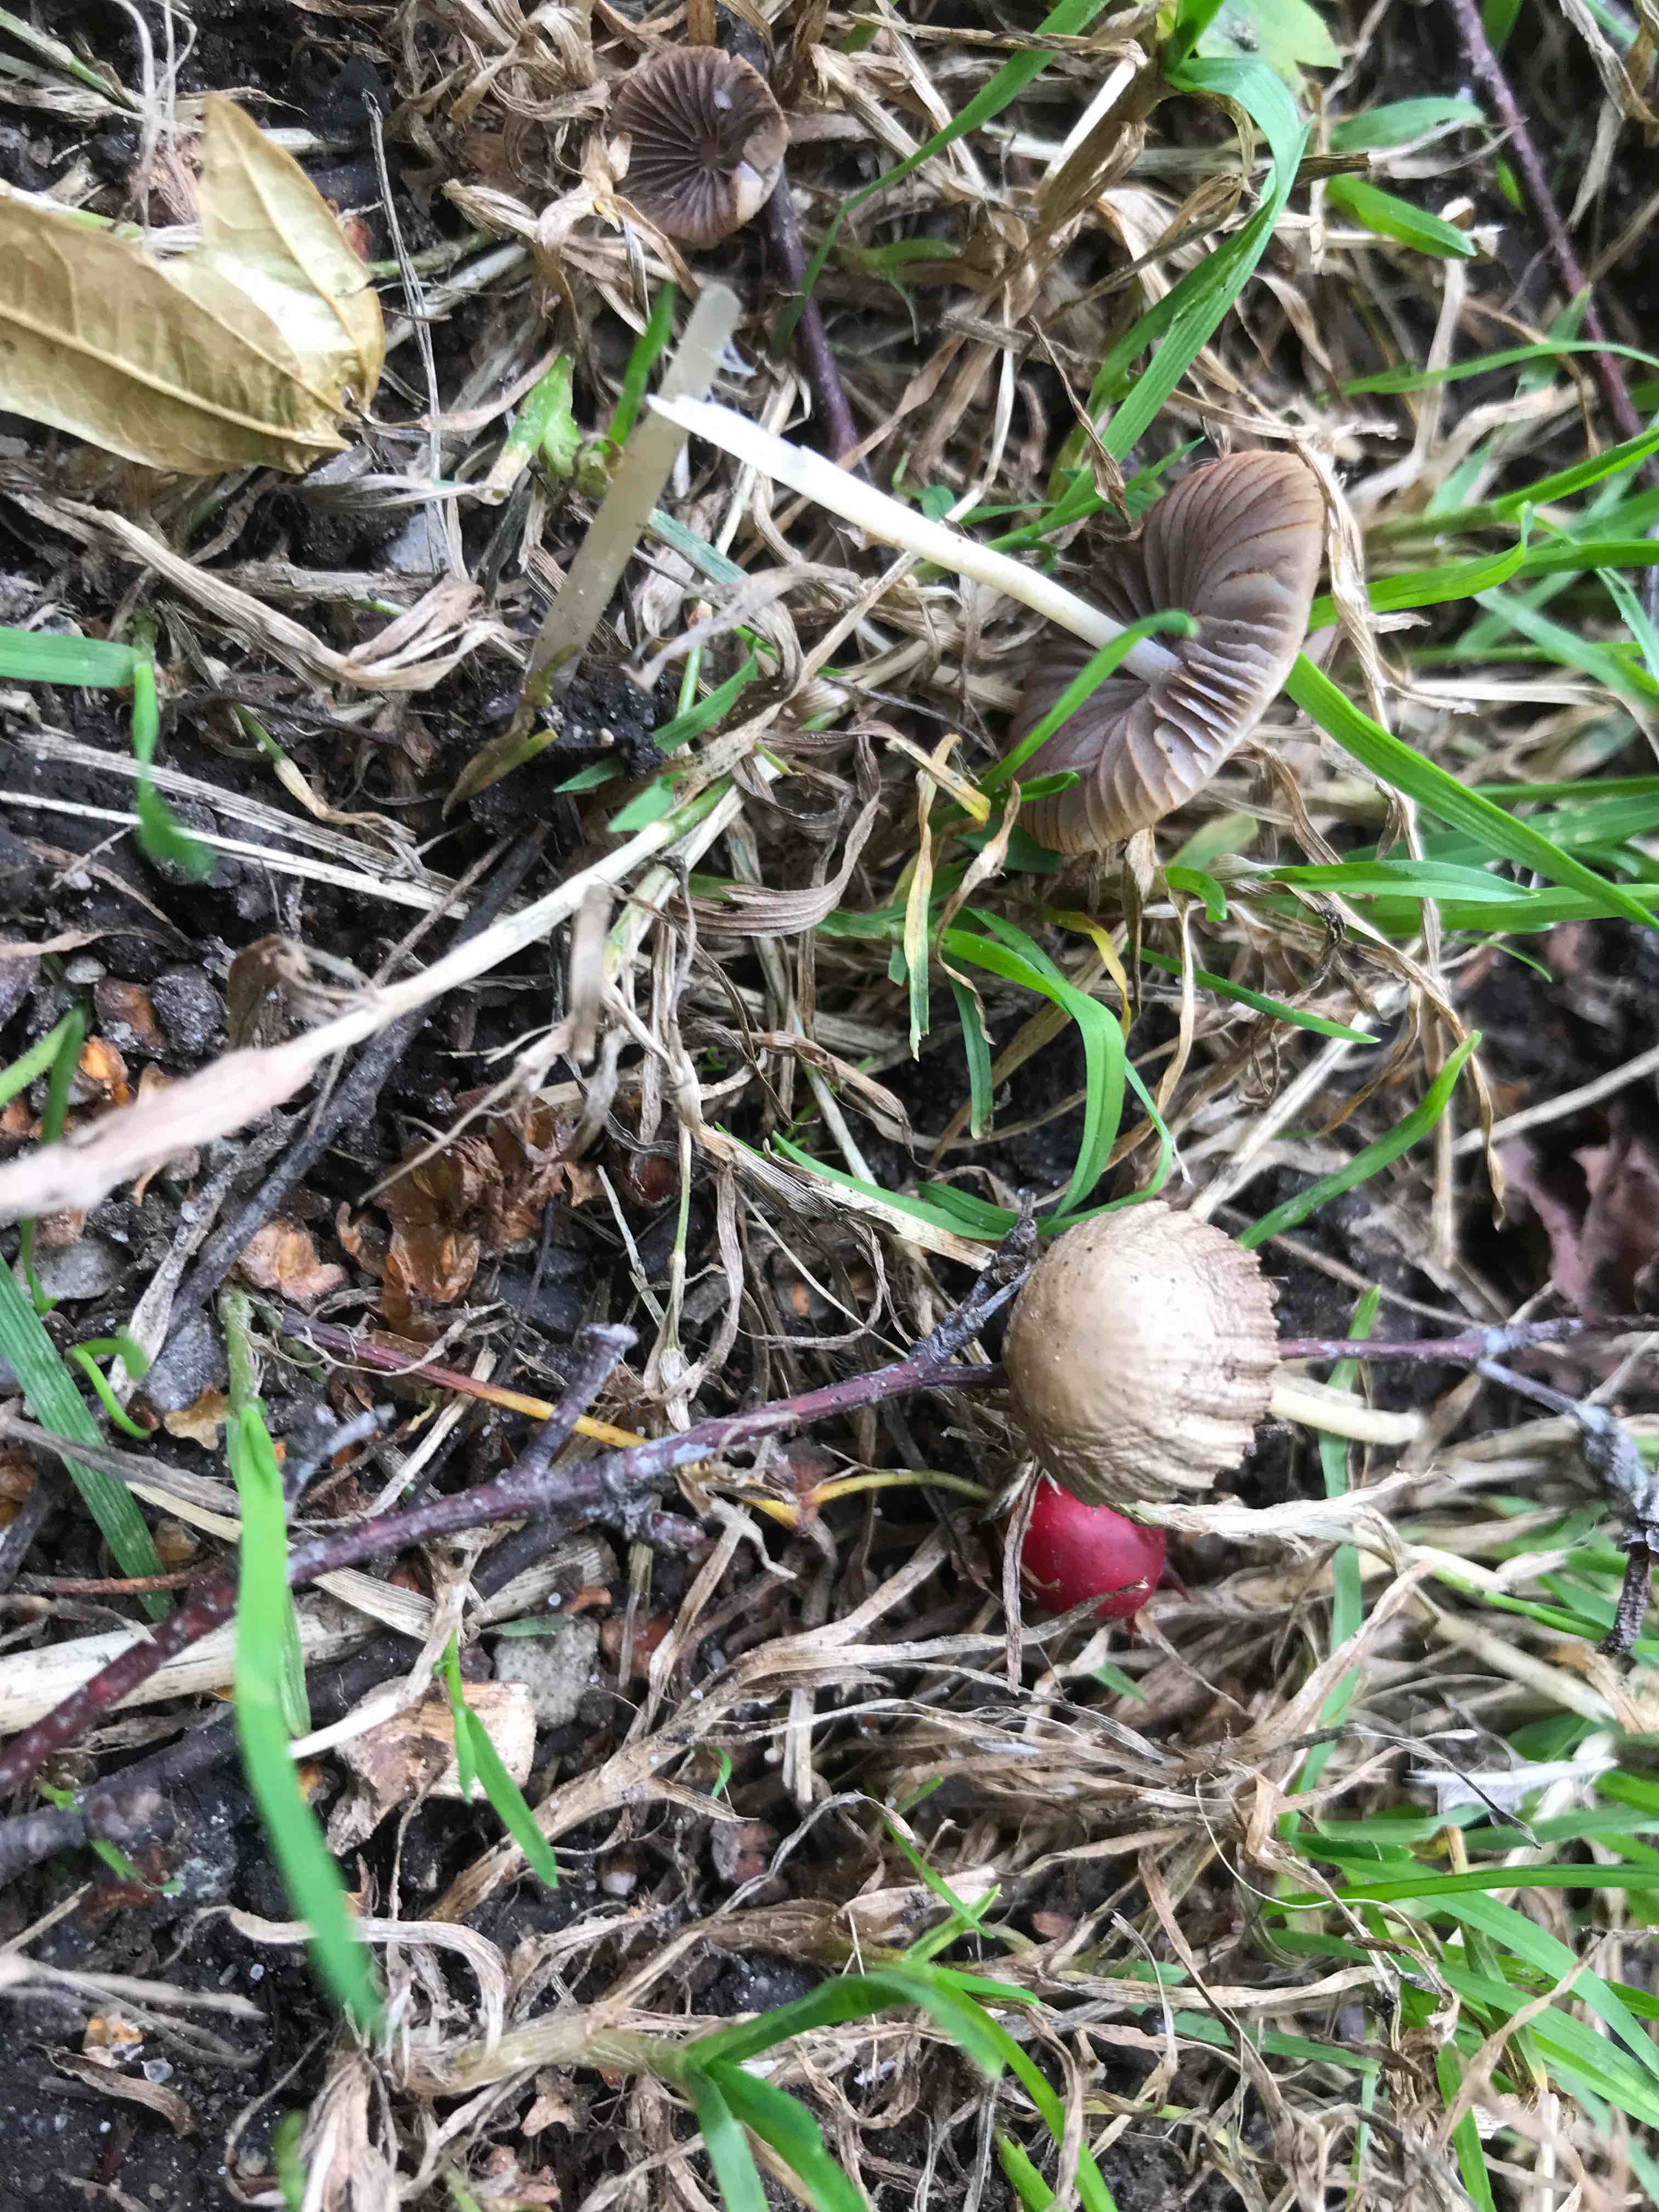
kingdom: Fungi
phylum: Basidiomycota
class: Agaricomycetes
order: Agaricales
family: Psathyrellaceae
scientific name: Psathyrellaceae
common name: mørkhatfamilien
